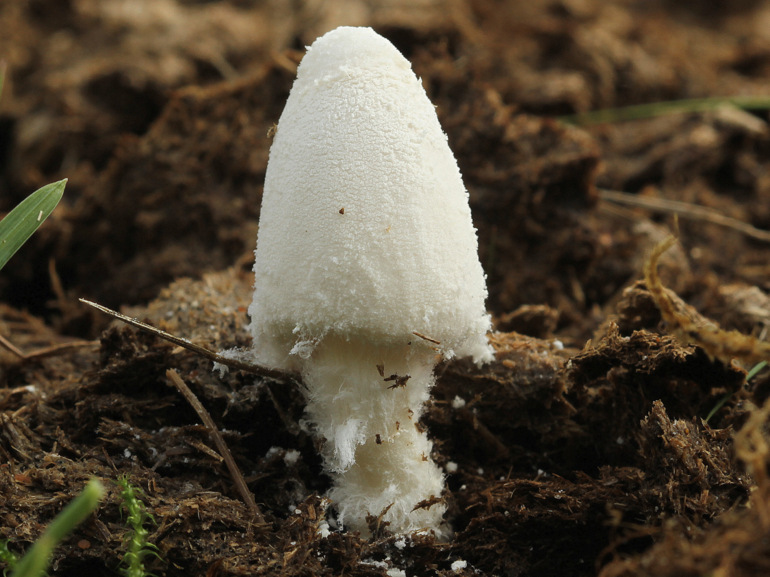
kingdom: Fungi
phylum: Basidiomycota
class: Agaricomycetes
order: Agaricales
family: Psathyrellaceae
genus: Coprinopsis
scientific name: Coprinopsis nivea
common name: snehvid blækhat
